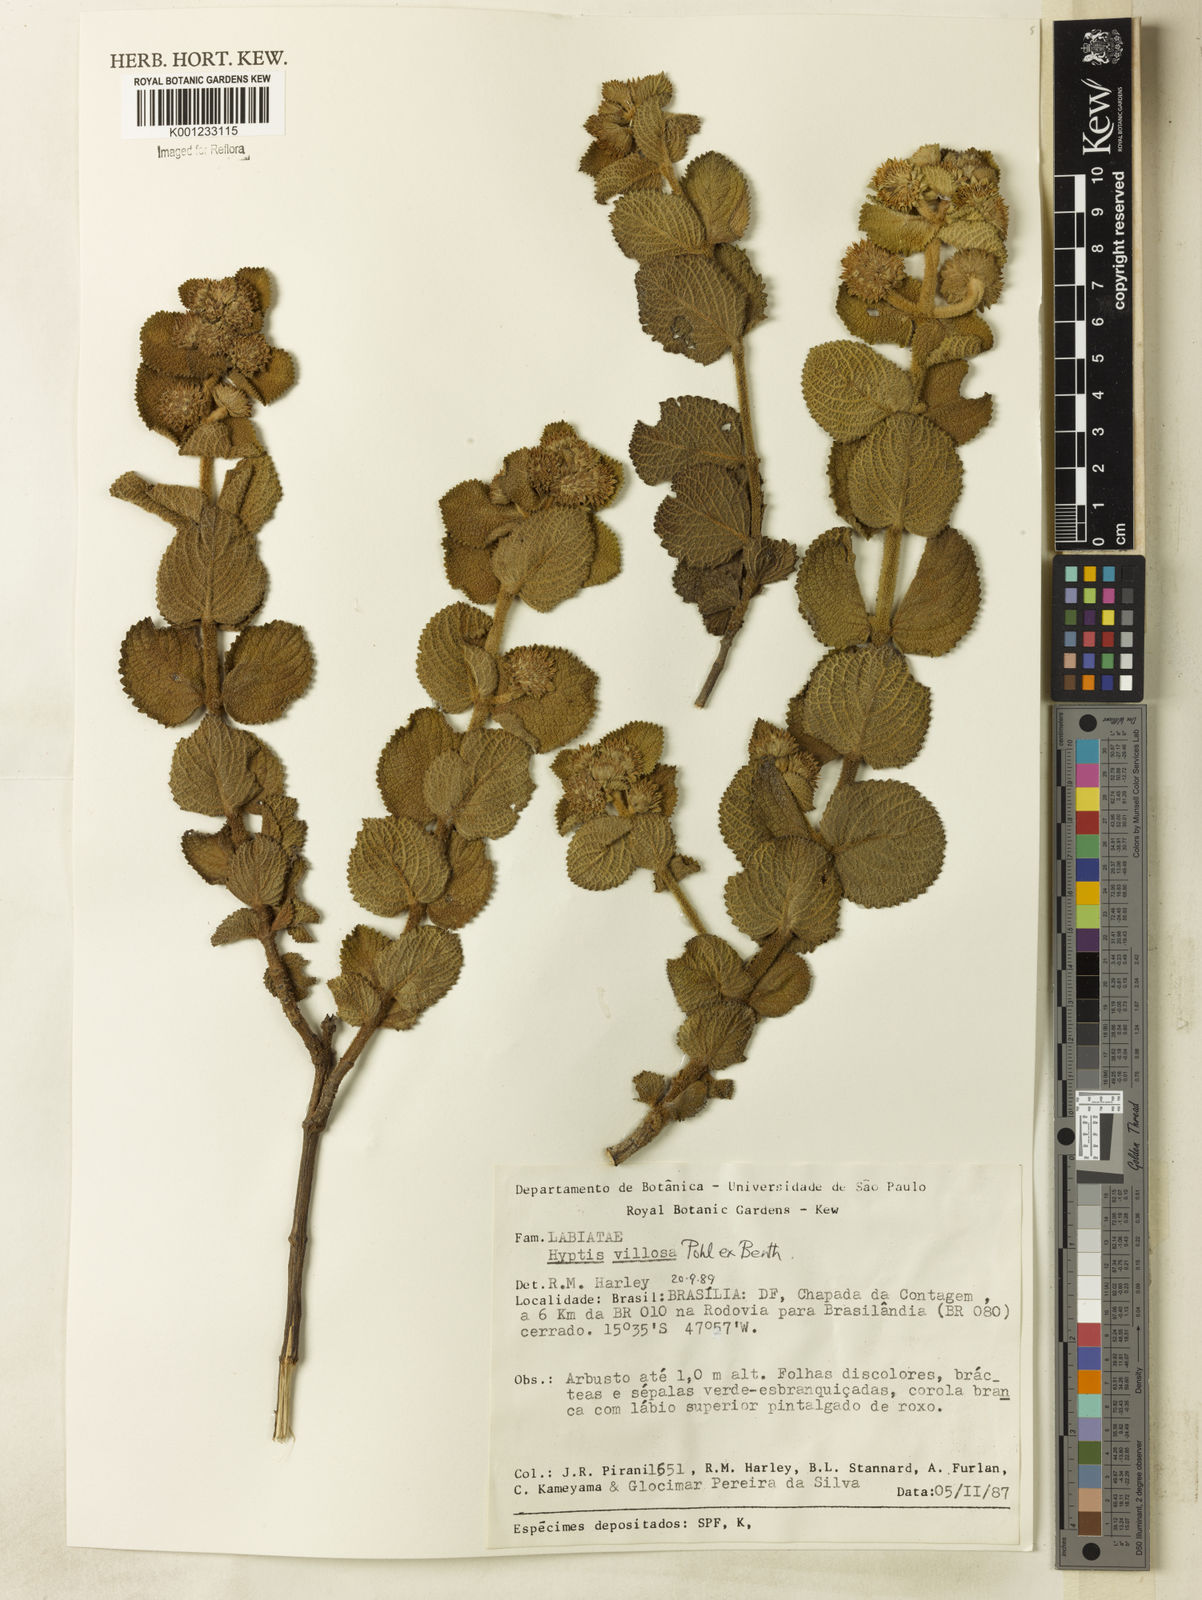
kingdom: Plantae
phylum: Tracheophyta
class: Magnoliopsida
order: Lamiales
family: Lamiaceae
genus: Hyptis
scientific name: Hyptis villosa
